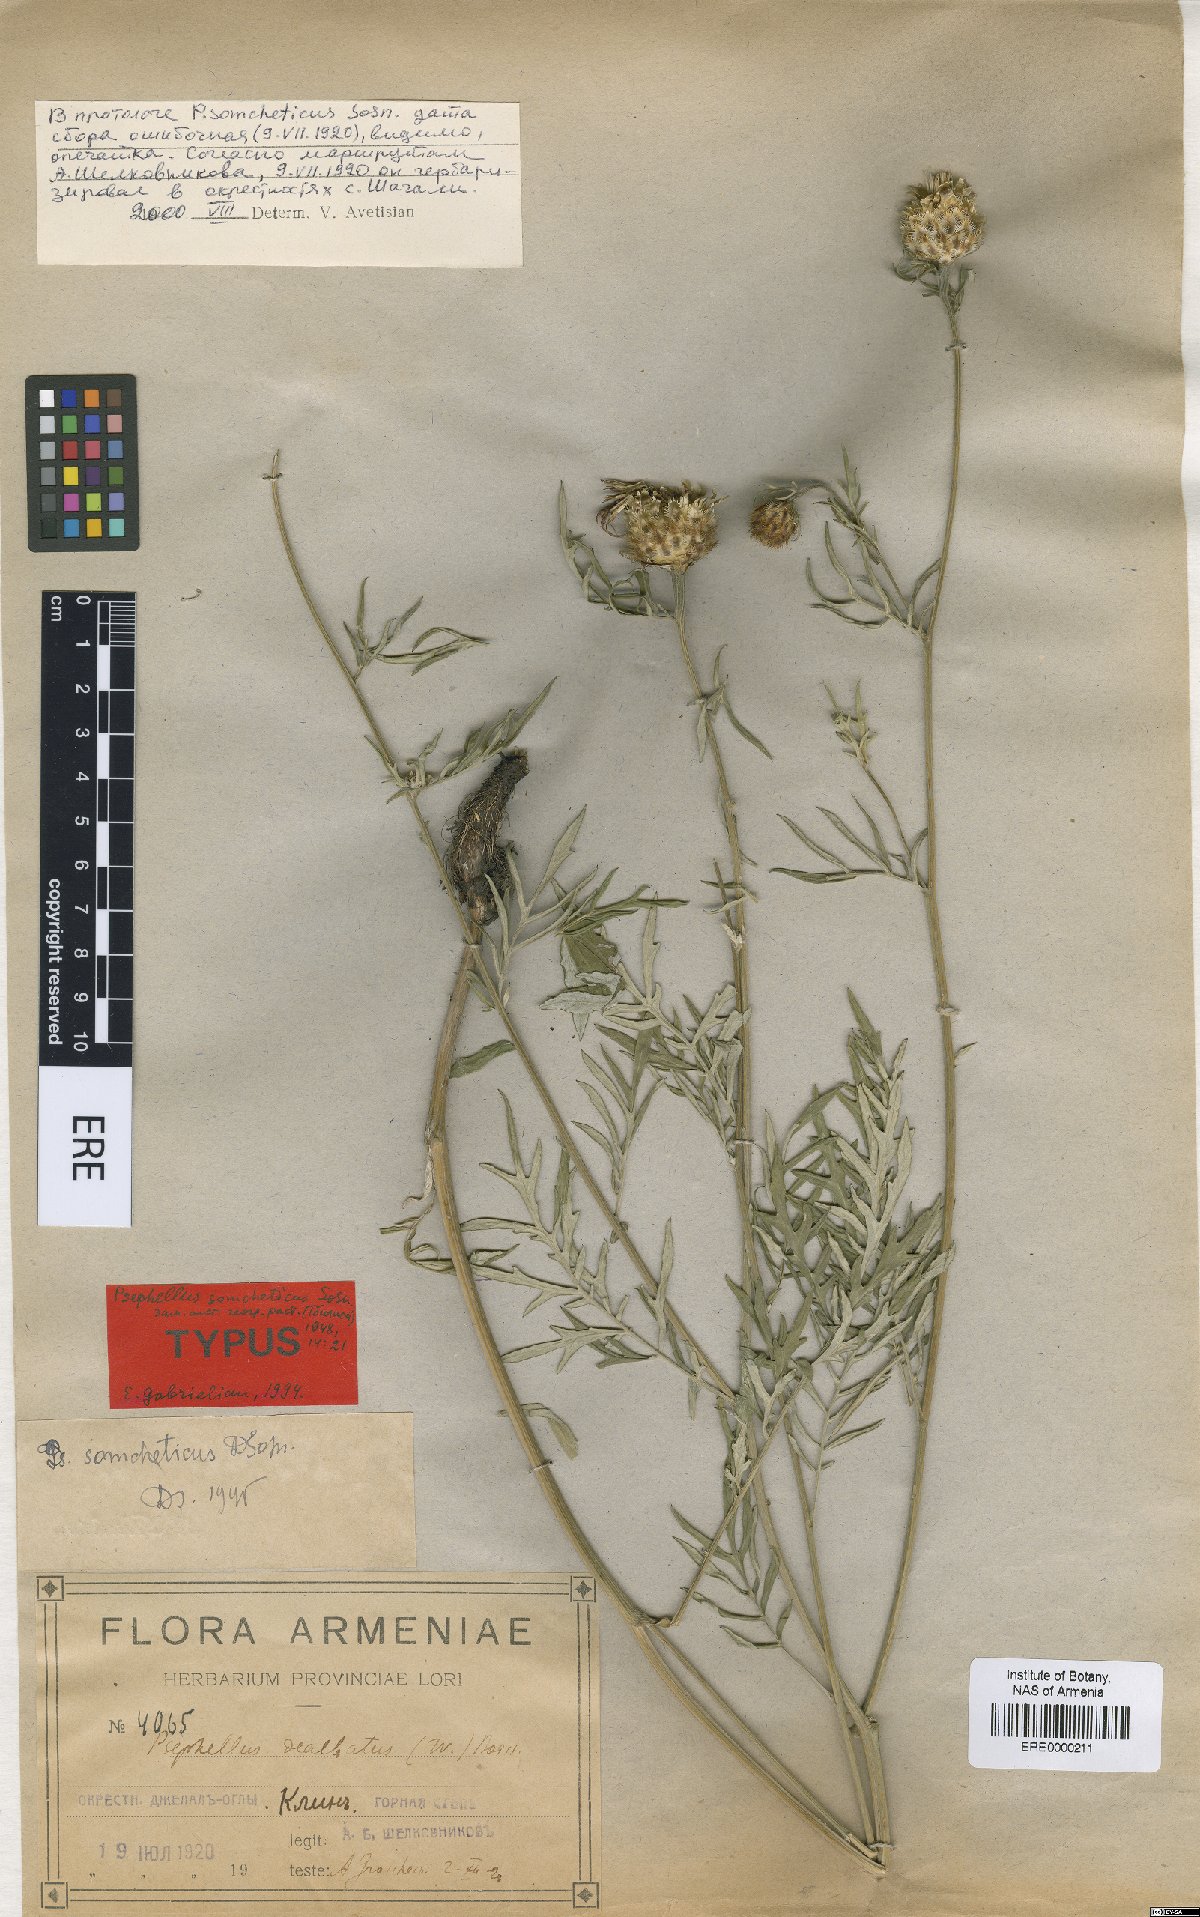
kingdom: Plantae
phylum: Tracheophyta
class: Magnoliopsida
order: Asterales
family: Asteraceae
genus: Psephellus
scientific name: Psephellus somcheticus
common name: Armenian psephellus
